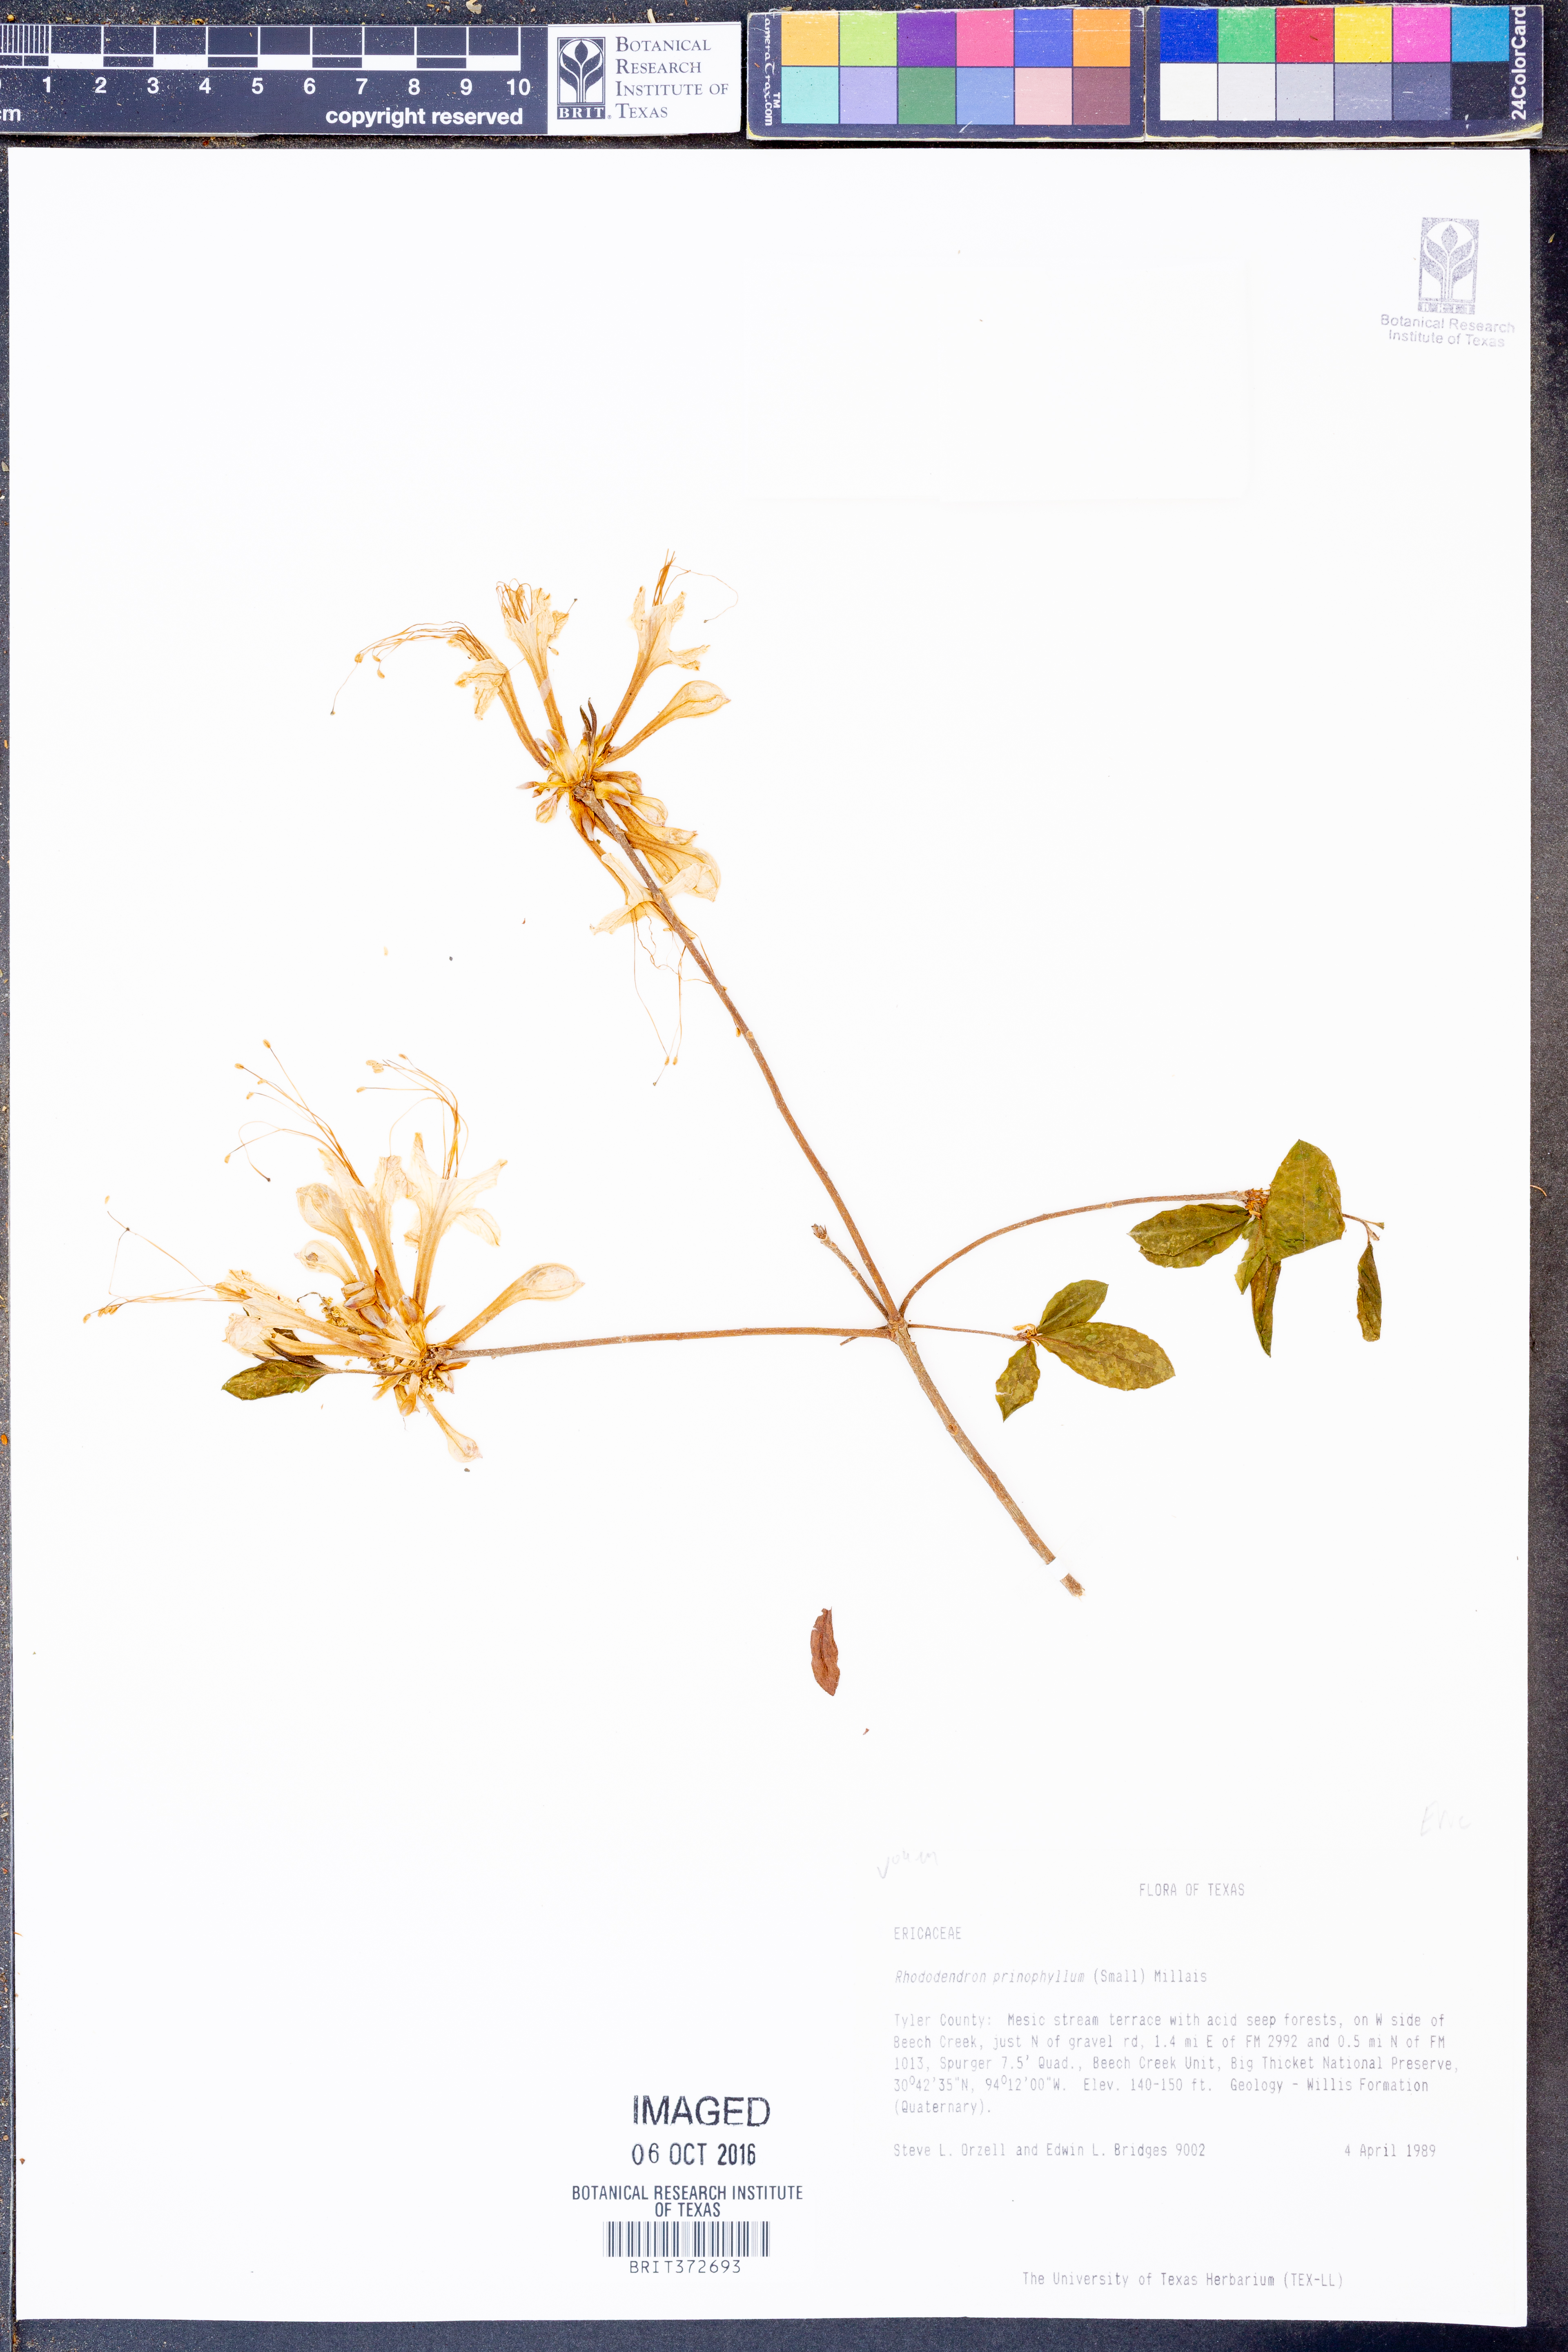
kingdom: Plantae
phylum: Tracheophyta
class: Magnoliopsida
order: Ericales
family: Ericaceae
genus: Rhododendron
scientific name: Rhododendron roseum
